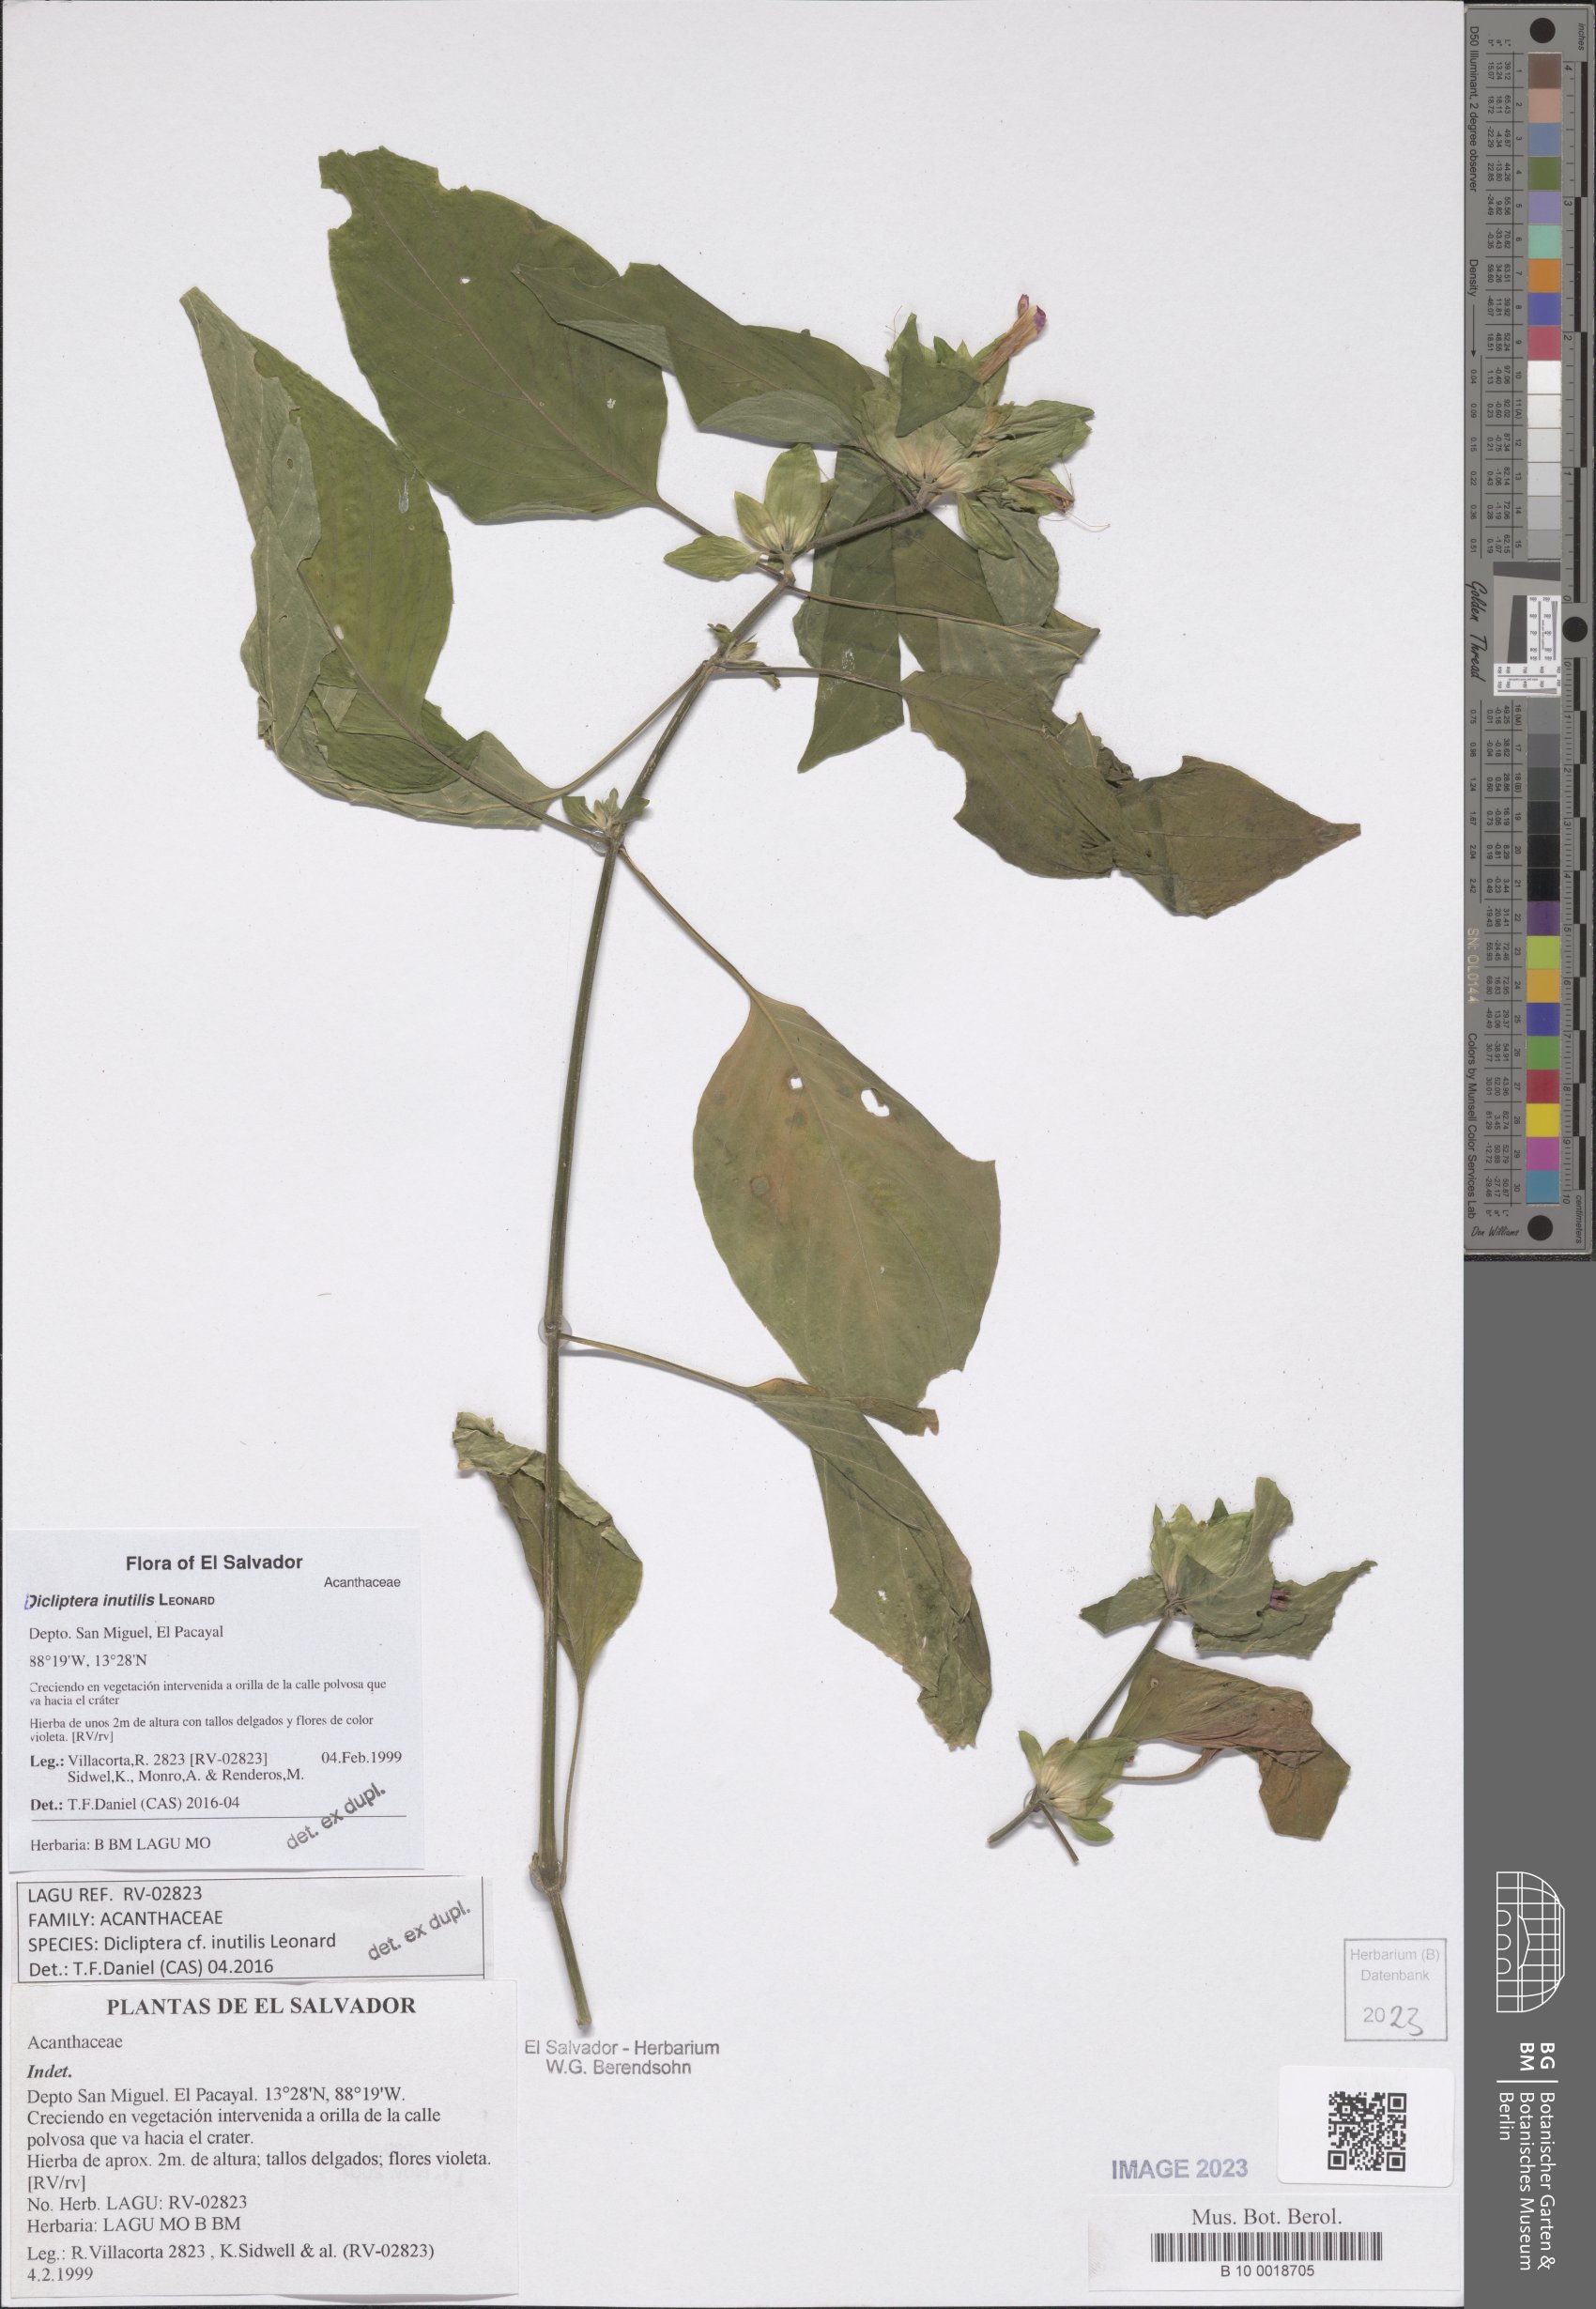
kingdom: Plantae
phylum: Tracheophyta
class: Magnoliopsida
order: Lamiales
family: Acanthaceae
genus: Dicliptera
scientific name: Dicliptera inutilis
